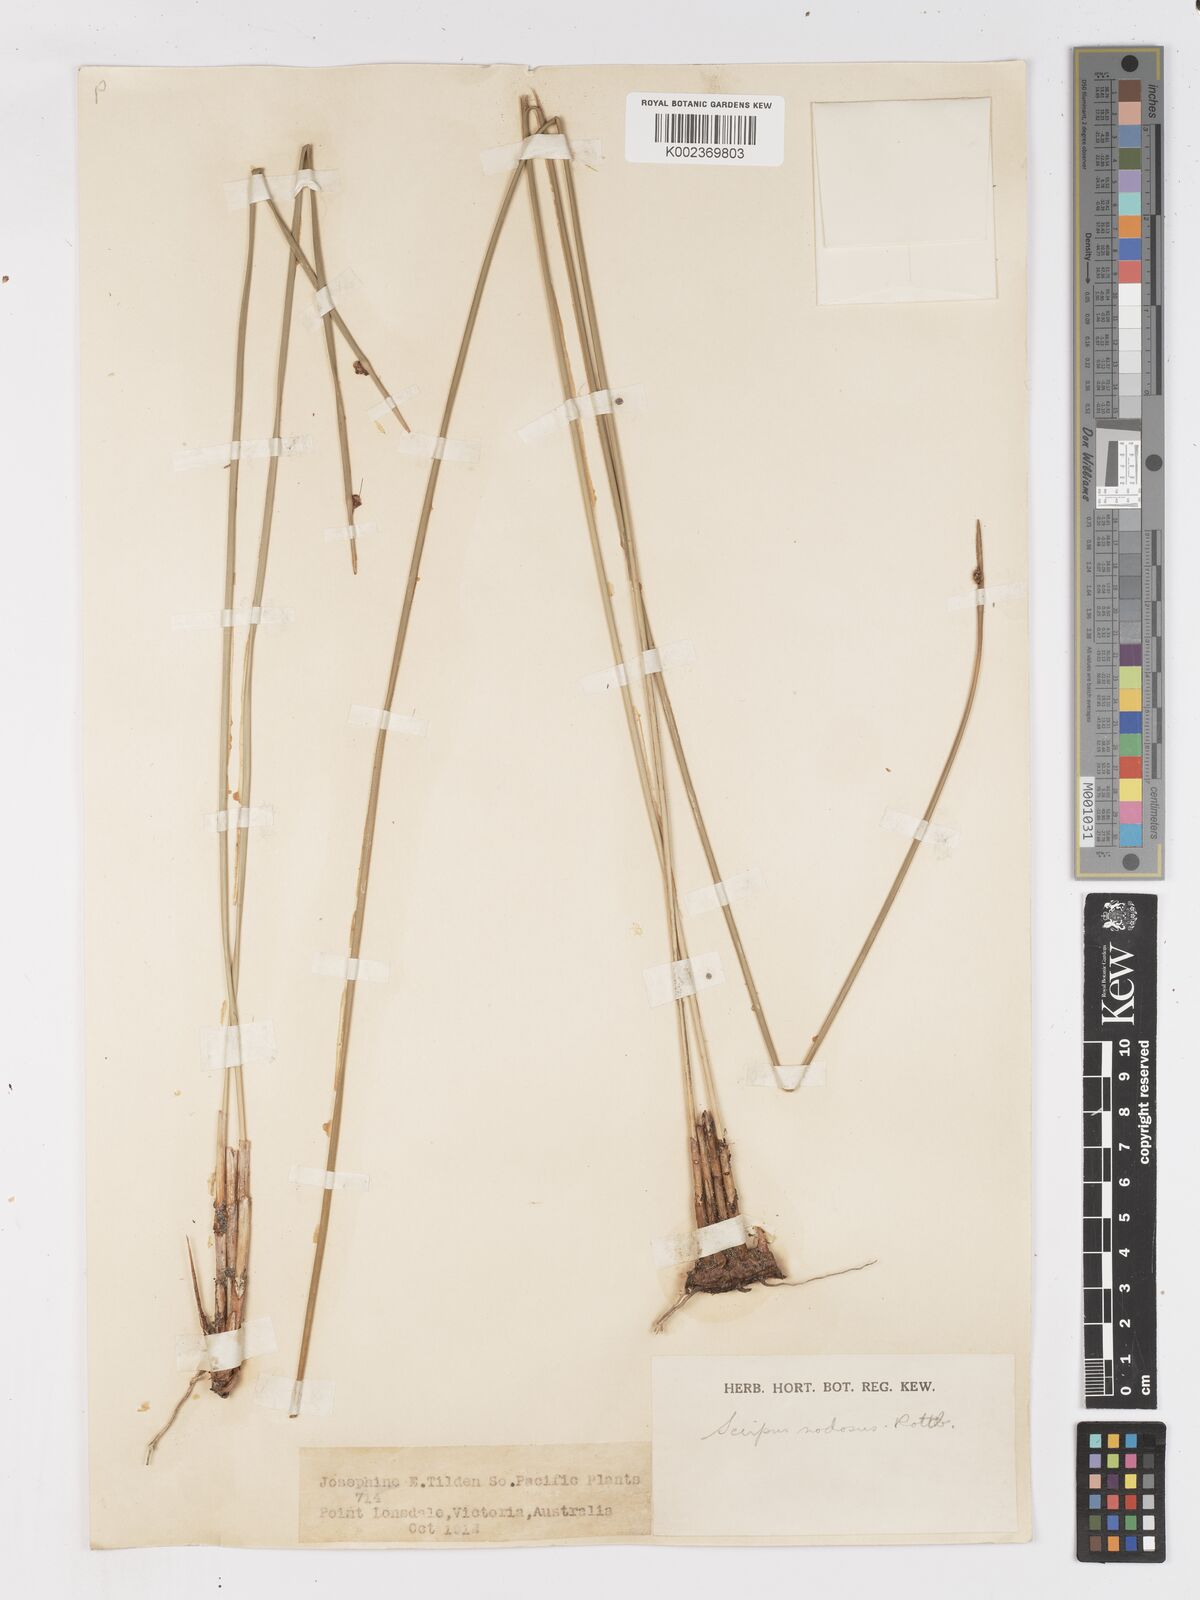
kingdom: Plantae
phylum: Tracheophyta
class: Liliopsida
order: Poales
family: Cyperaceae
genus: Ficinia
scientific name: Ficinia nodosa
